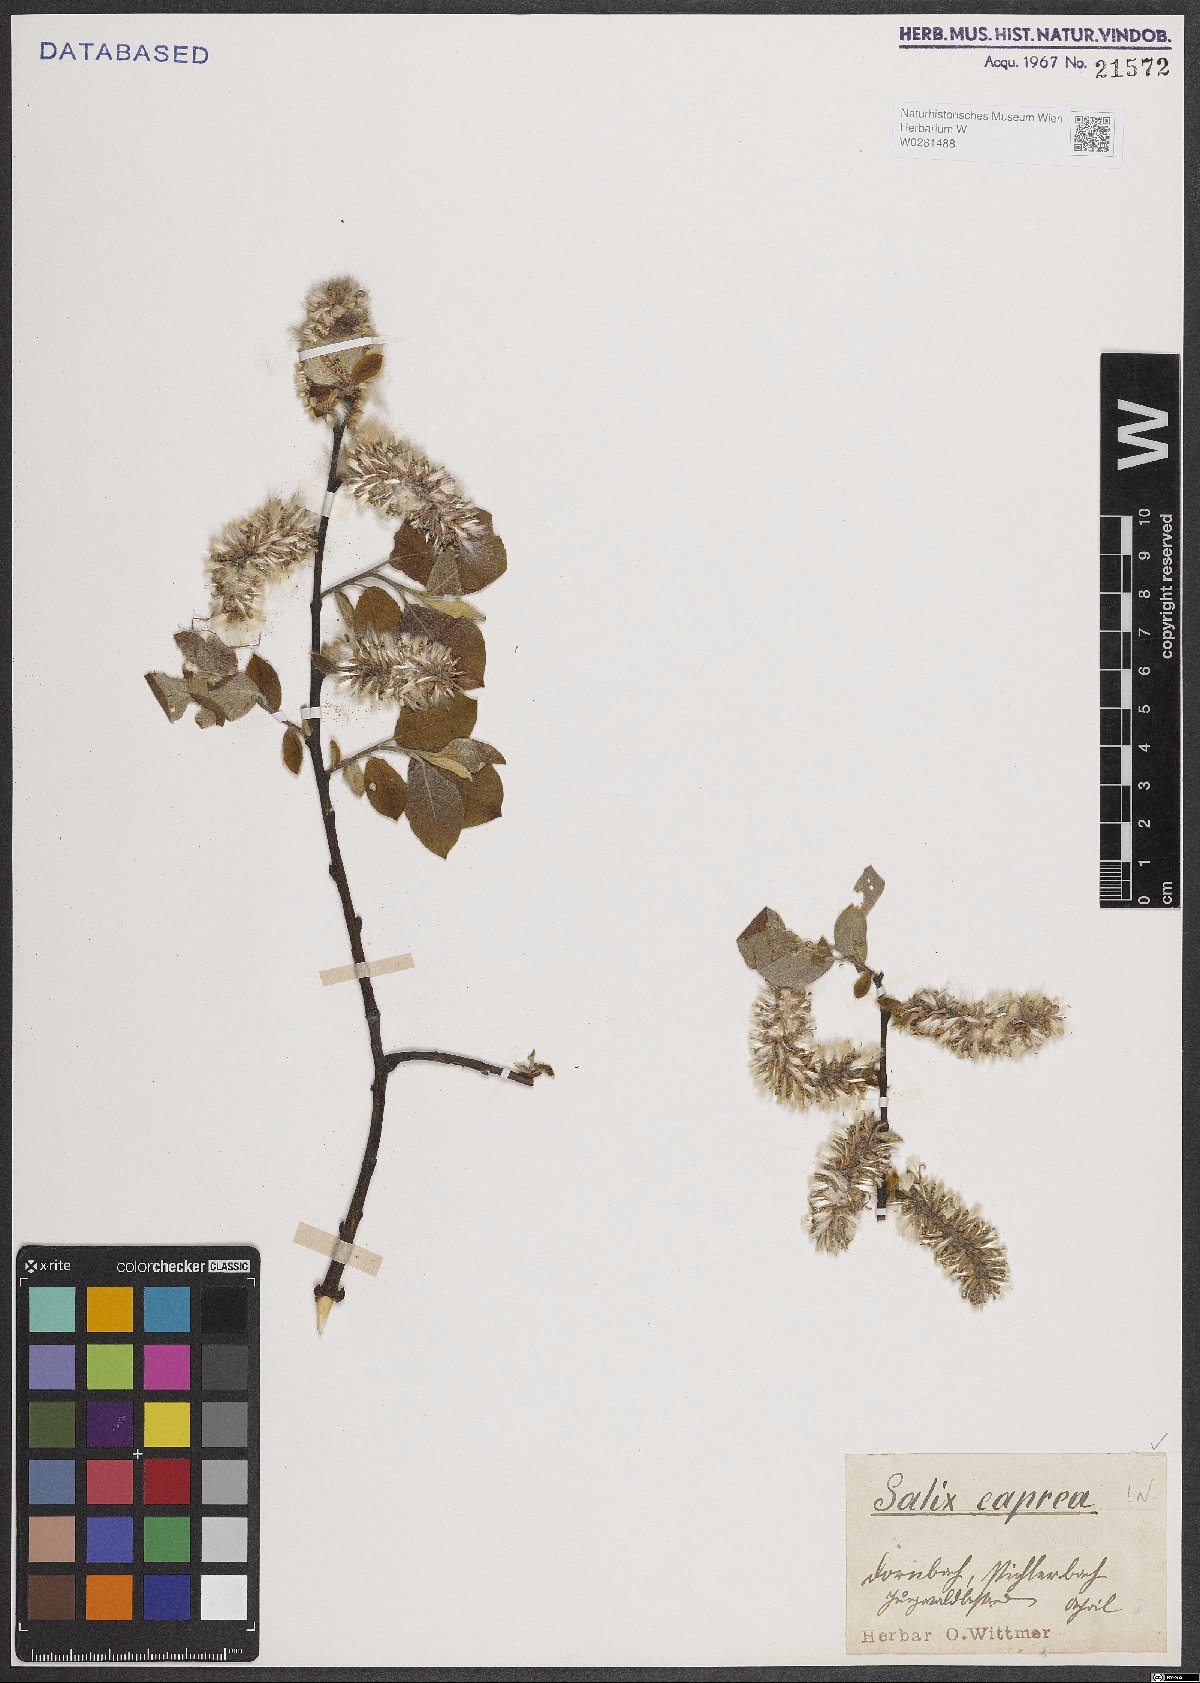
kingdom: Plantae
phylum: Tracheophyta
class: Magnoliopsida
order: Malpighiales
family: Salicaceae
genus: Salix
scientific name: Salix caprea
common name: Goat willow
